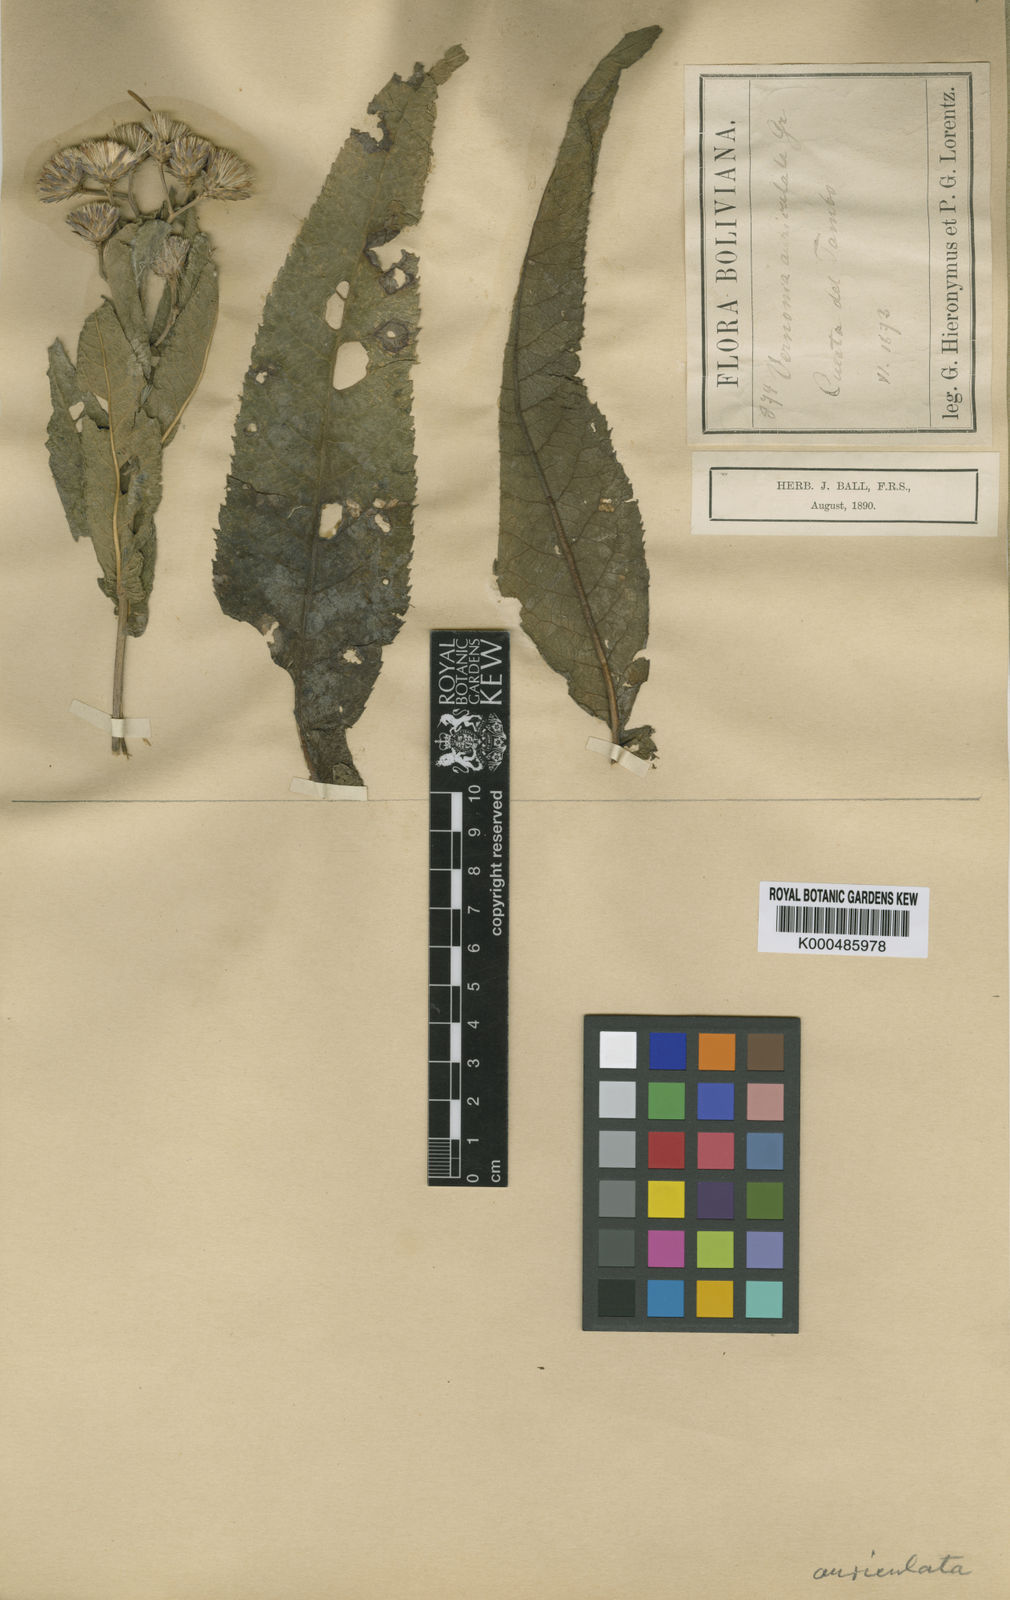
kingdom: Plantae
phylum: Tracheophyta
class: Magnoliopsida
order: Asterales
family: Asteraceae
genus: Vernonanthura
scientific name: Vernonanthura auriculata
